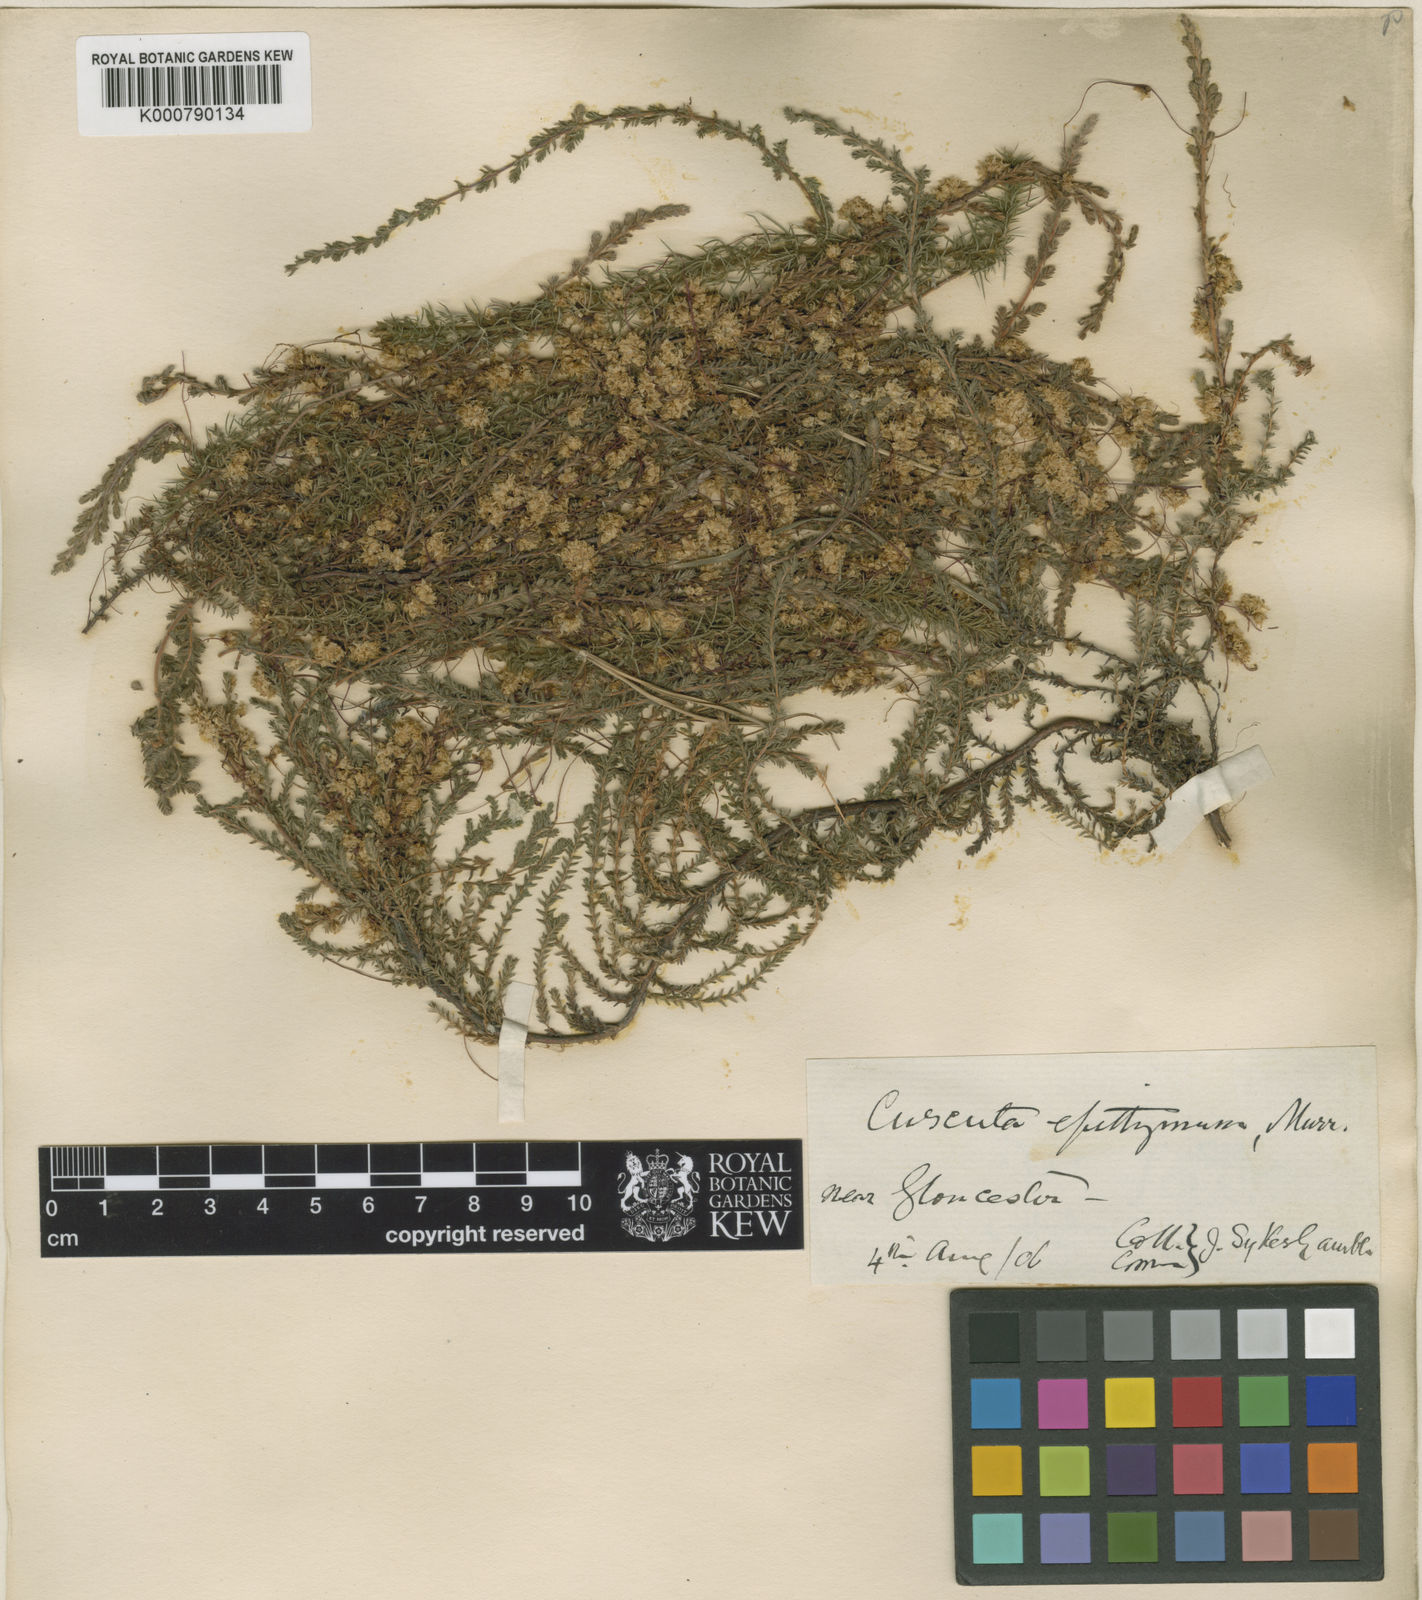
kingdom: Plantae
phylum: Tracheophyta
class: Magnoliopsida
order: Solanales
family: Convolvulaceae
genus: Cuscuta
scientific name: Cuscuta epithymum
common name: Clover dodder
